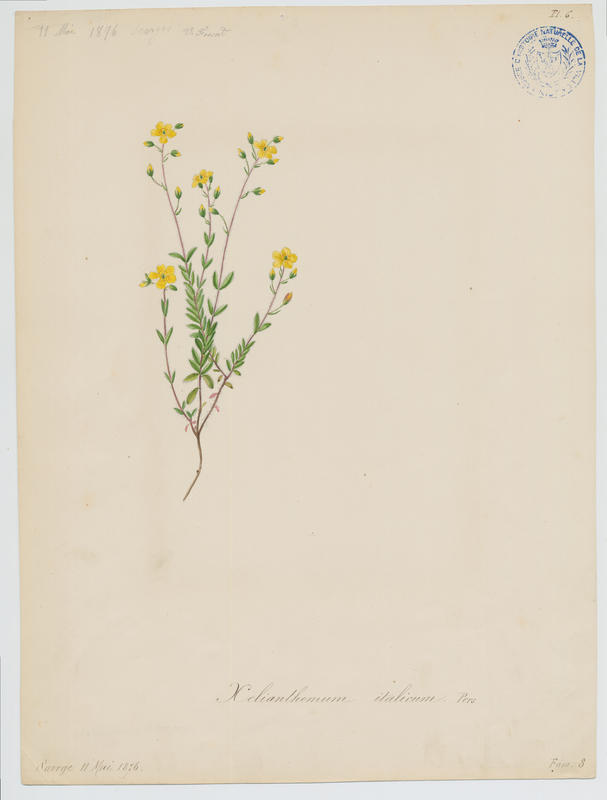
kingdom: Plantae
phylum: Tracheophyta
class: Magnoliopsida
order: Malvales
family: Cistaceae
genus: Helianthemum
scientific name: Helianthemum italicum
